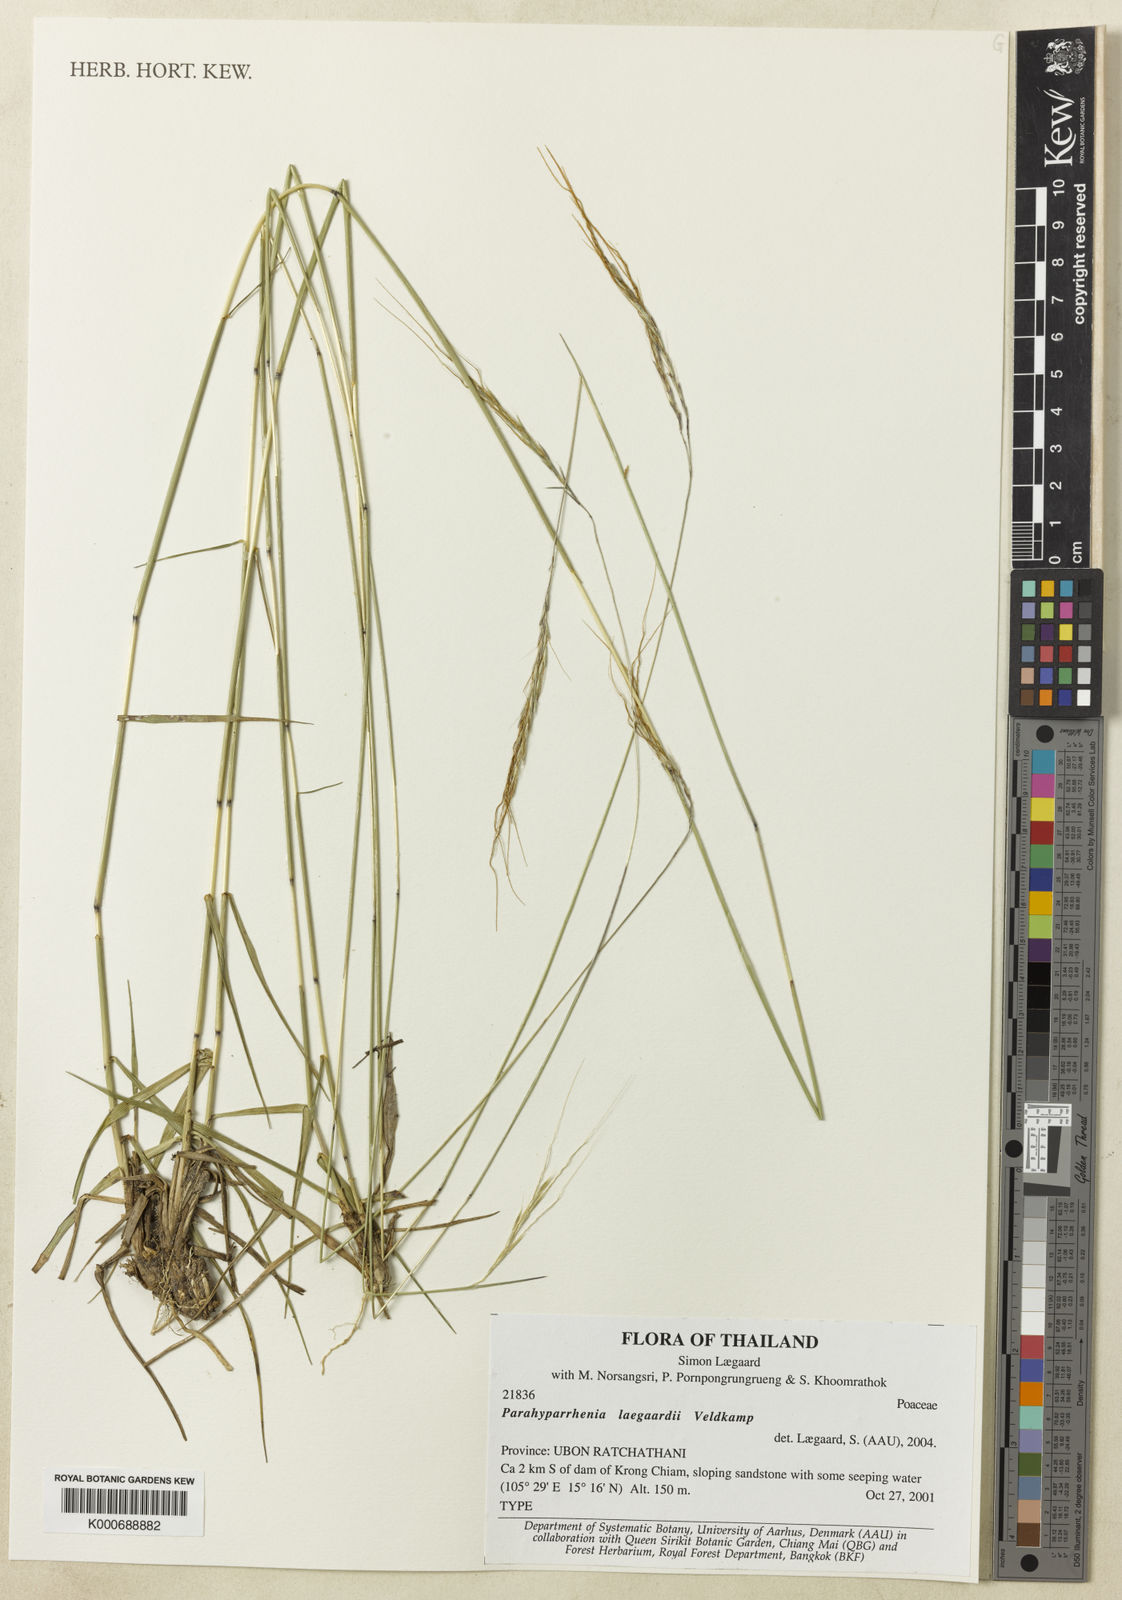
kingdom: Plantae
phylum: Tracheophyta
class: Liliopsida
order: Poales
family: Poaceae
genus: Parahyparrhenia
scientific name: Parahyparrhenia laegaardii
